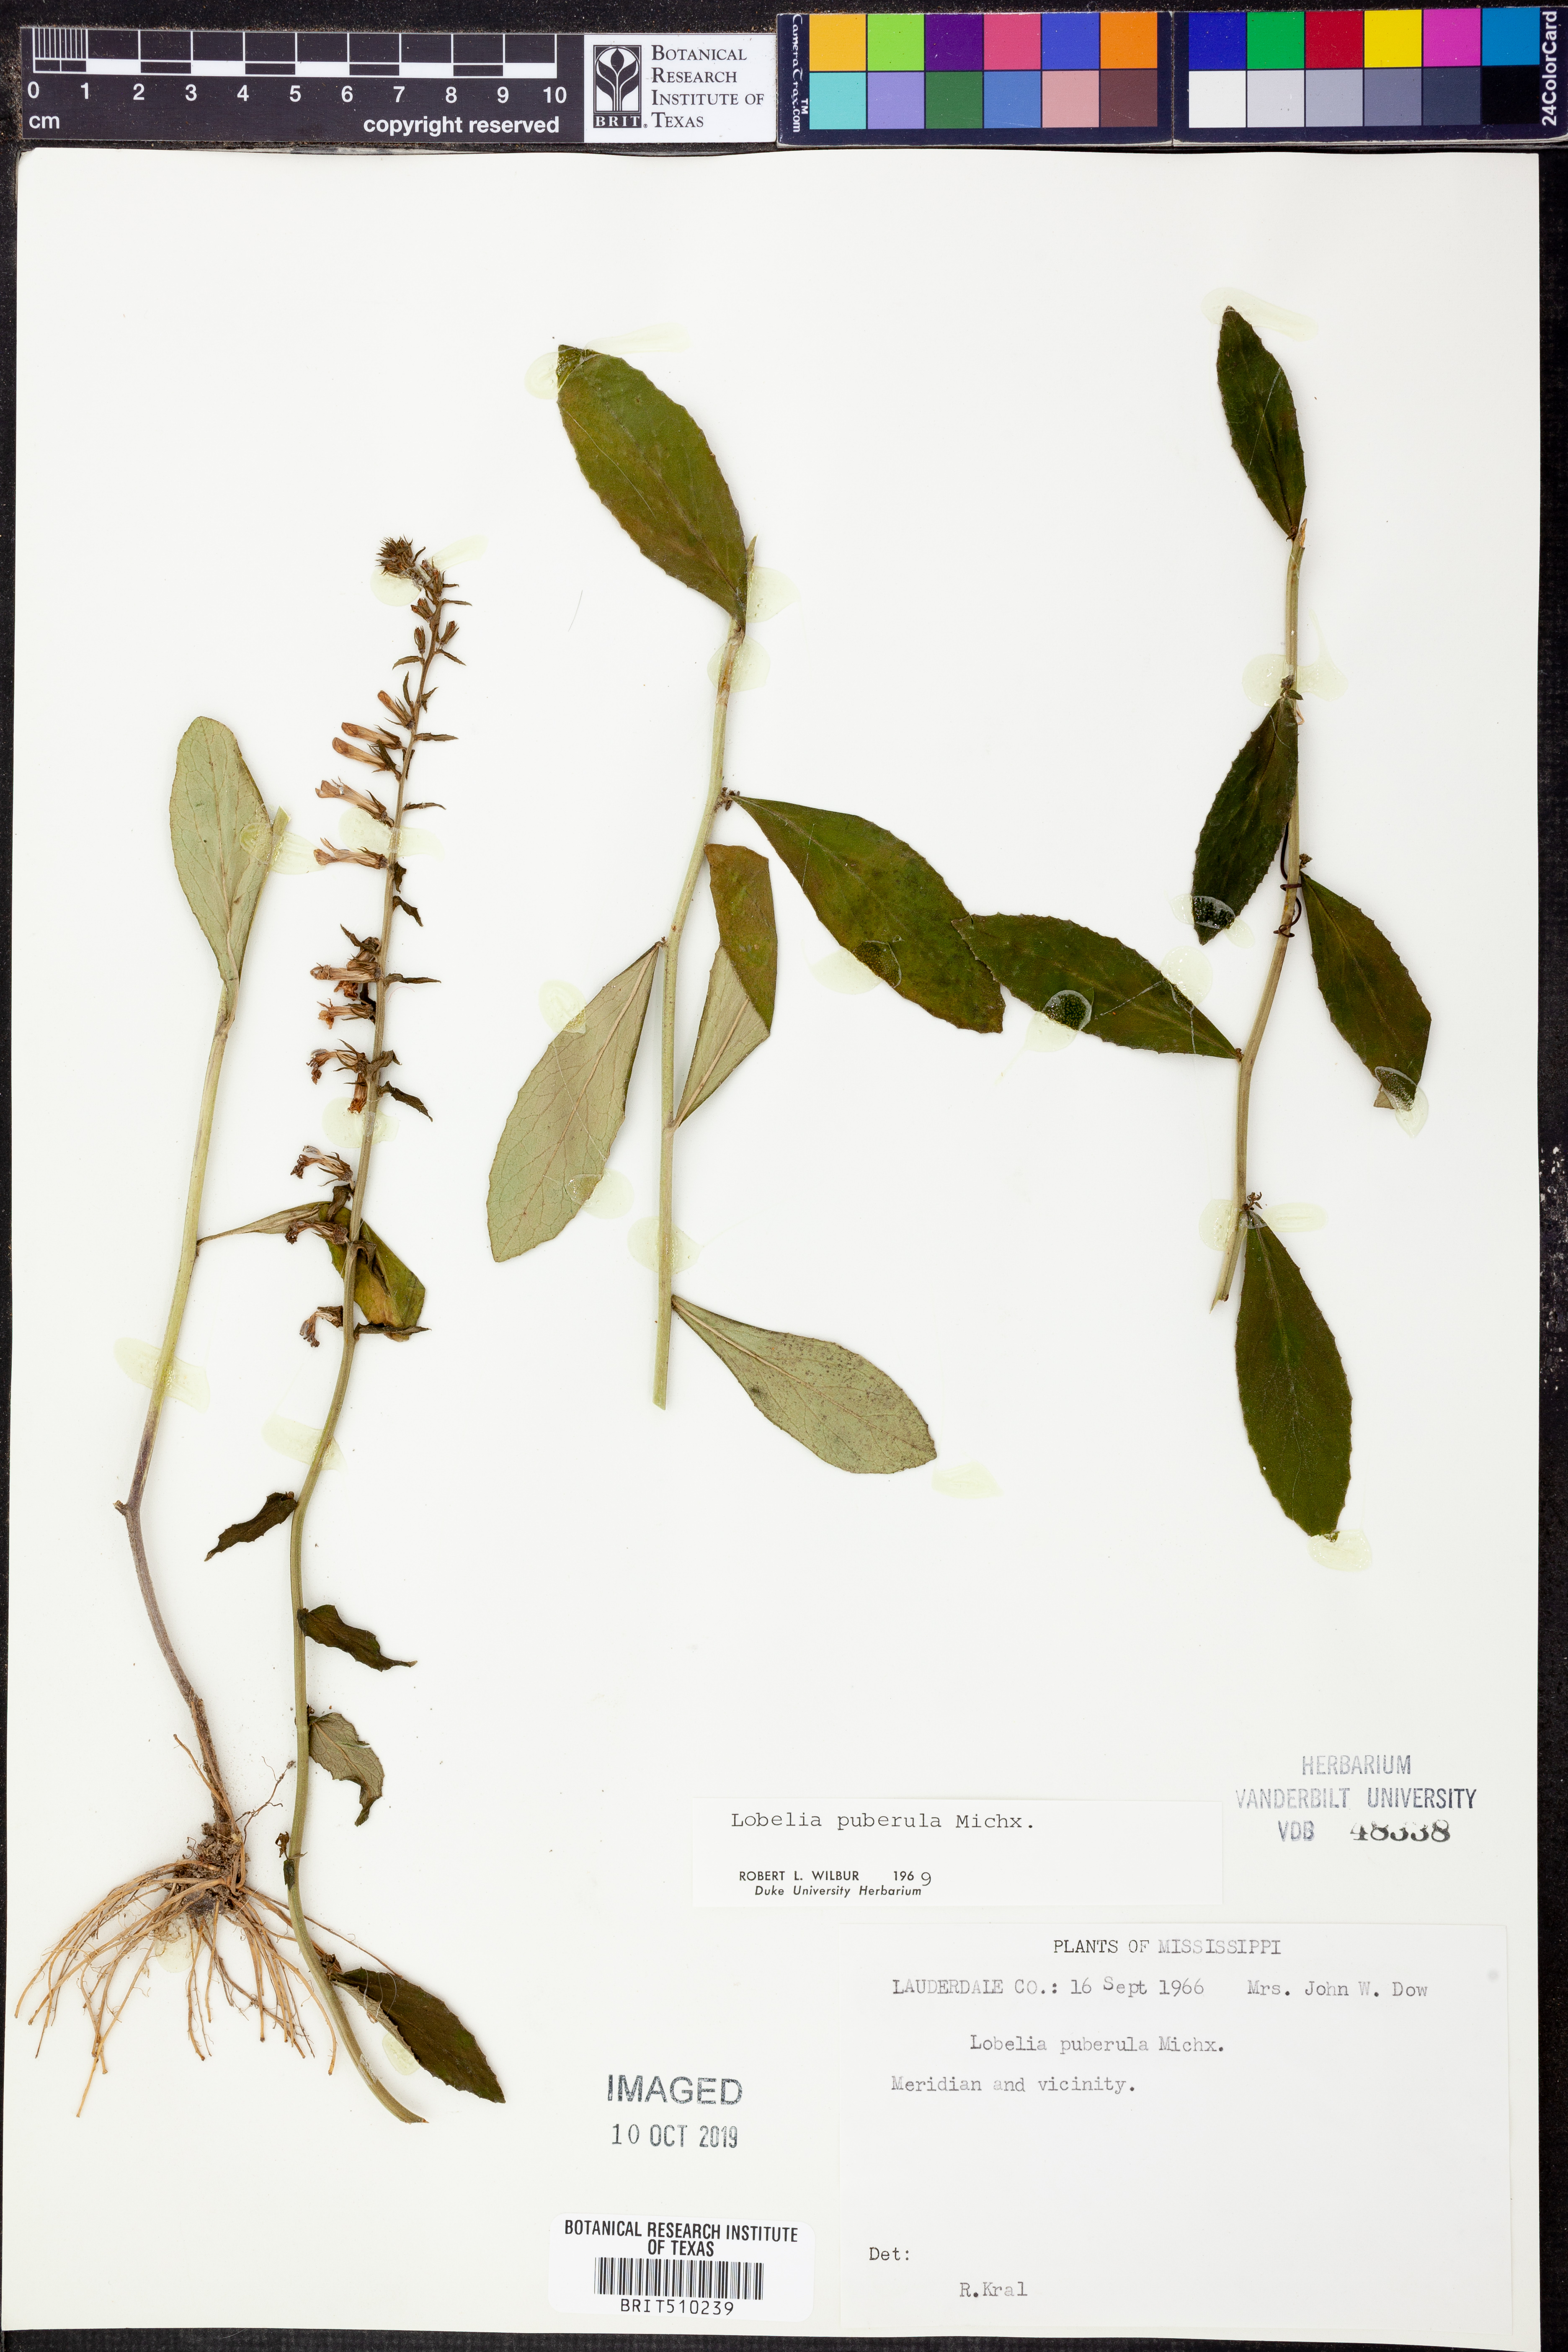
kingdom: Plantae
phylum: Tracheophyta
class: Magnoliopsida
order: Asterales
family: Campanulaceae
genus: Lobelia
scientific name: Lobelia puberula
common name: Purple dewdrop
